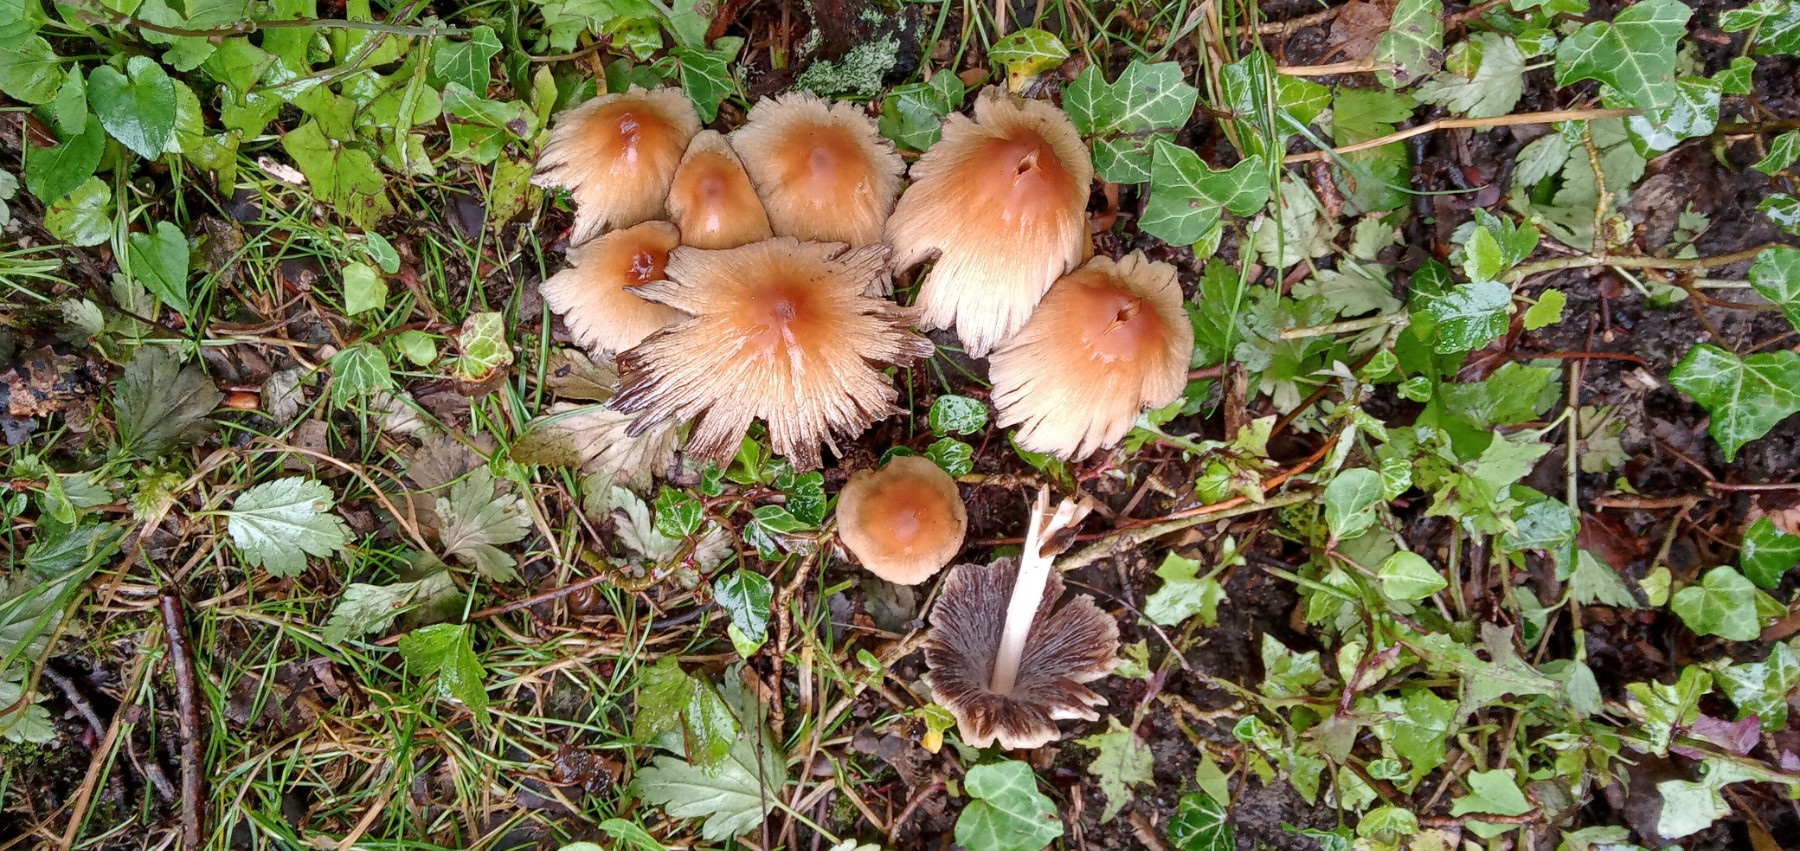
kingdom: Fungi
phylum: Basidiomycota
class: Agaricomycetes
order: Agaricales
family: Psathyrellaceae
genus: Coprinellus
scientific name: Coprinellus
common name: blækhat
